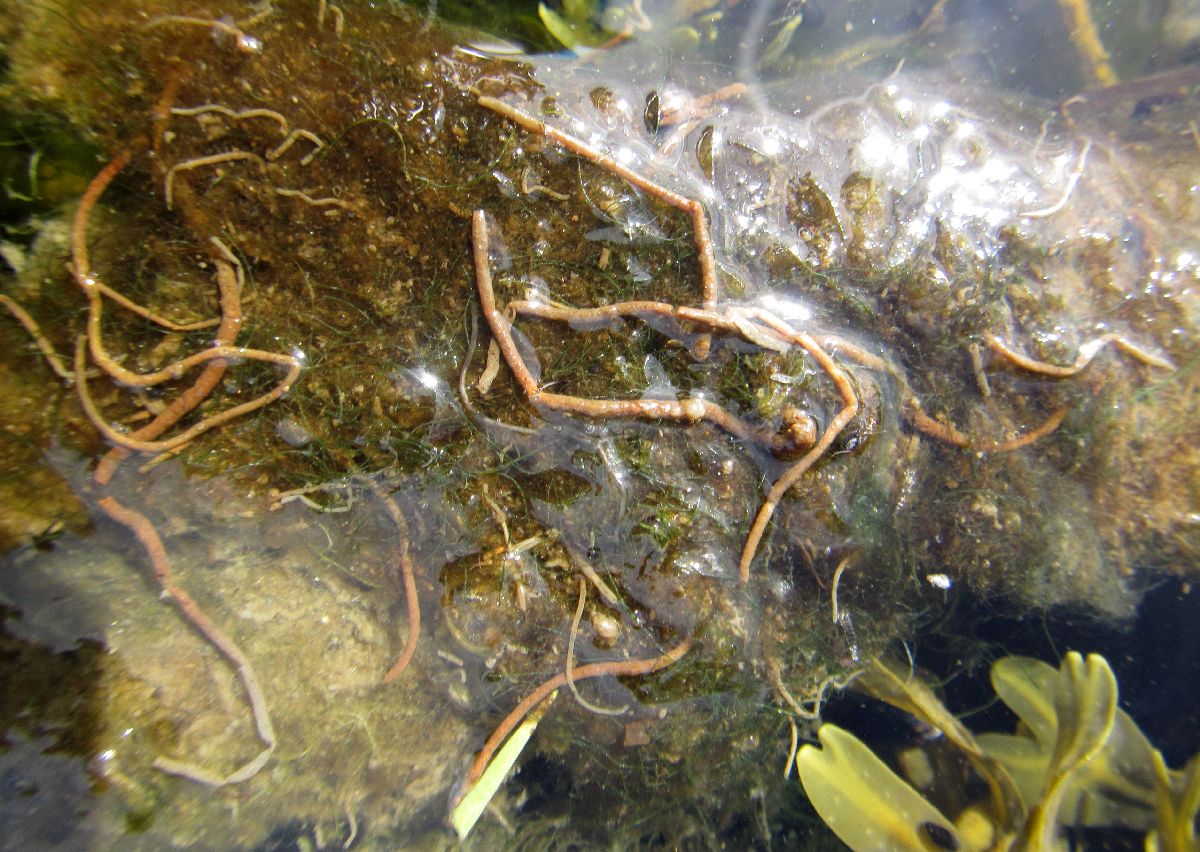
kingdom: Animalia
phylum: Annelida
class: Polychaeta
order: Sabellida
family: Oweniidae
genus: Galathowenia
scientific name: Galathowenia oculata
